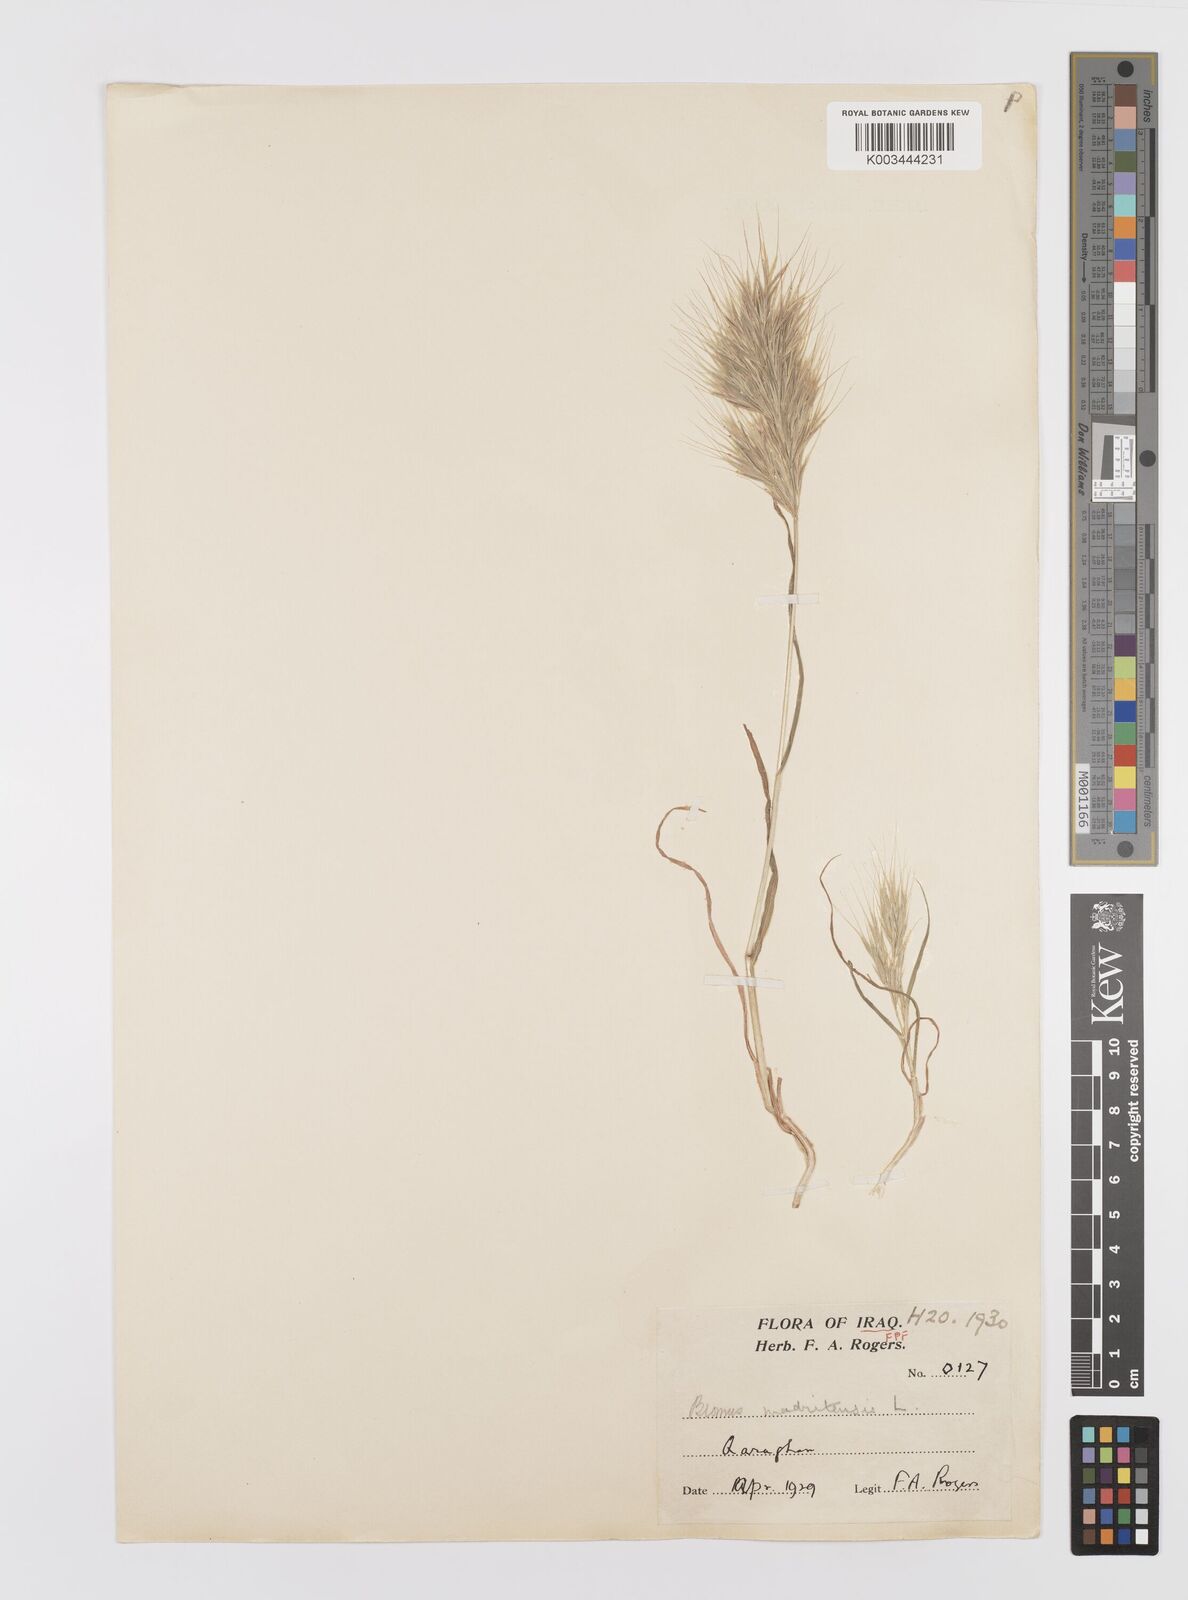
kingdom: Plantae
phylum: Tracheophyta
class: Liliopsida
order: Poales
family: Poaceae
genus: Bromus
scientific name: Bromus madritensis
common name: Compact brome
